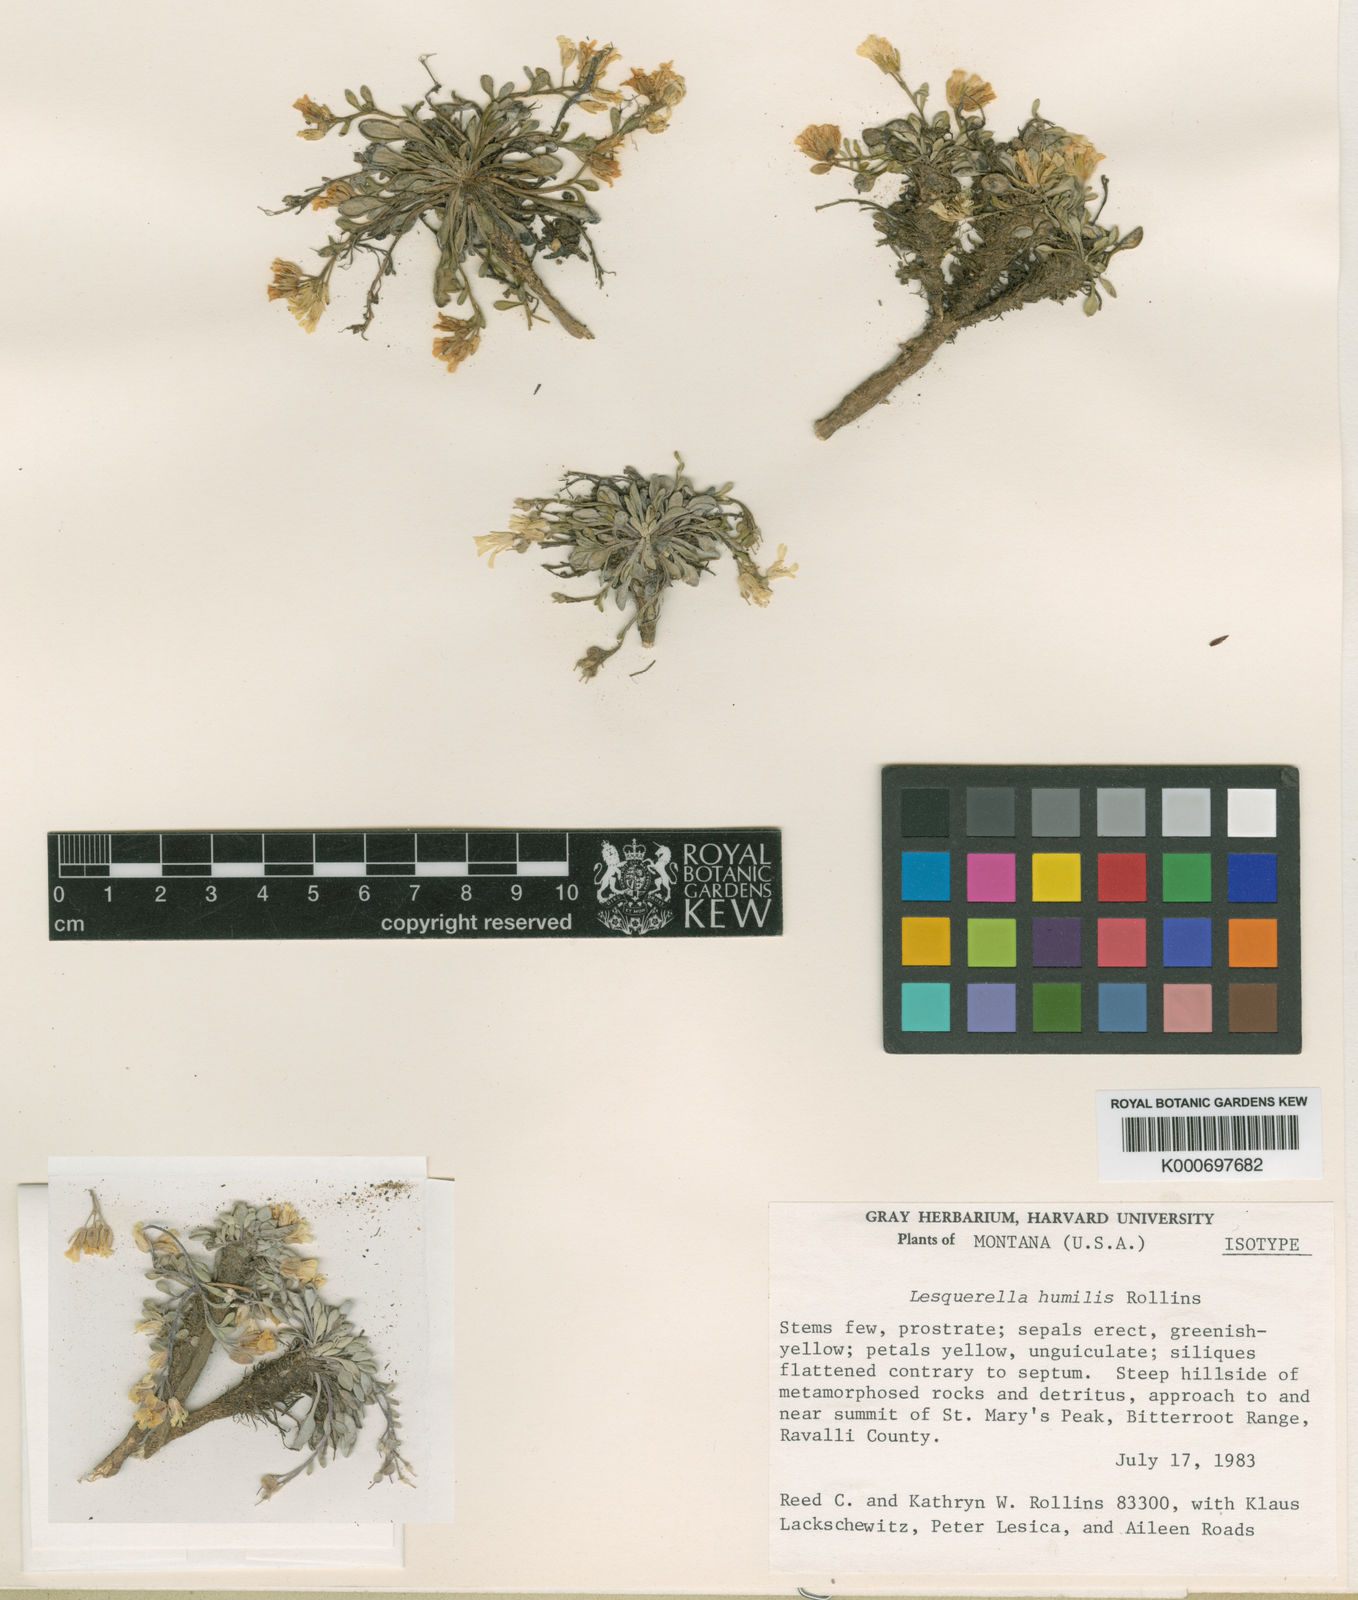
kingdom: Plantae
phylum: Tracheophyta
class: Magnoliopsida
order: Brassicales
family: Brassicaceae
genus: Physaria
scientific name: Physaria humilis
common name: Bitterroot bladderpod
